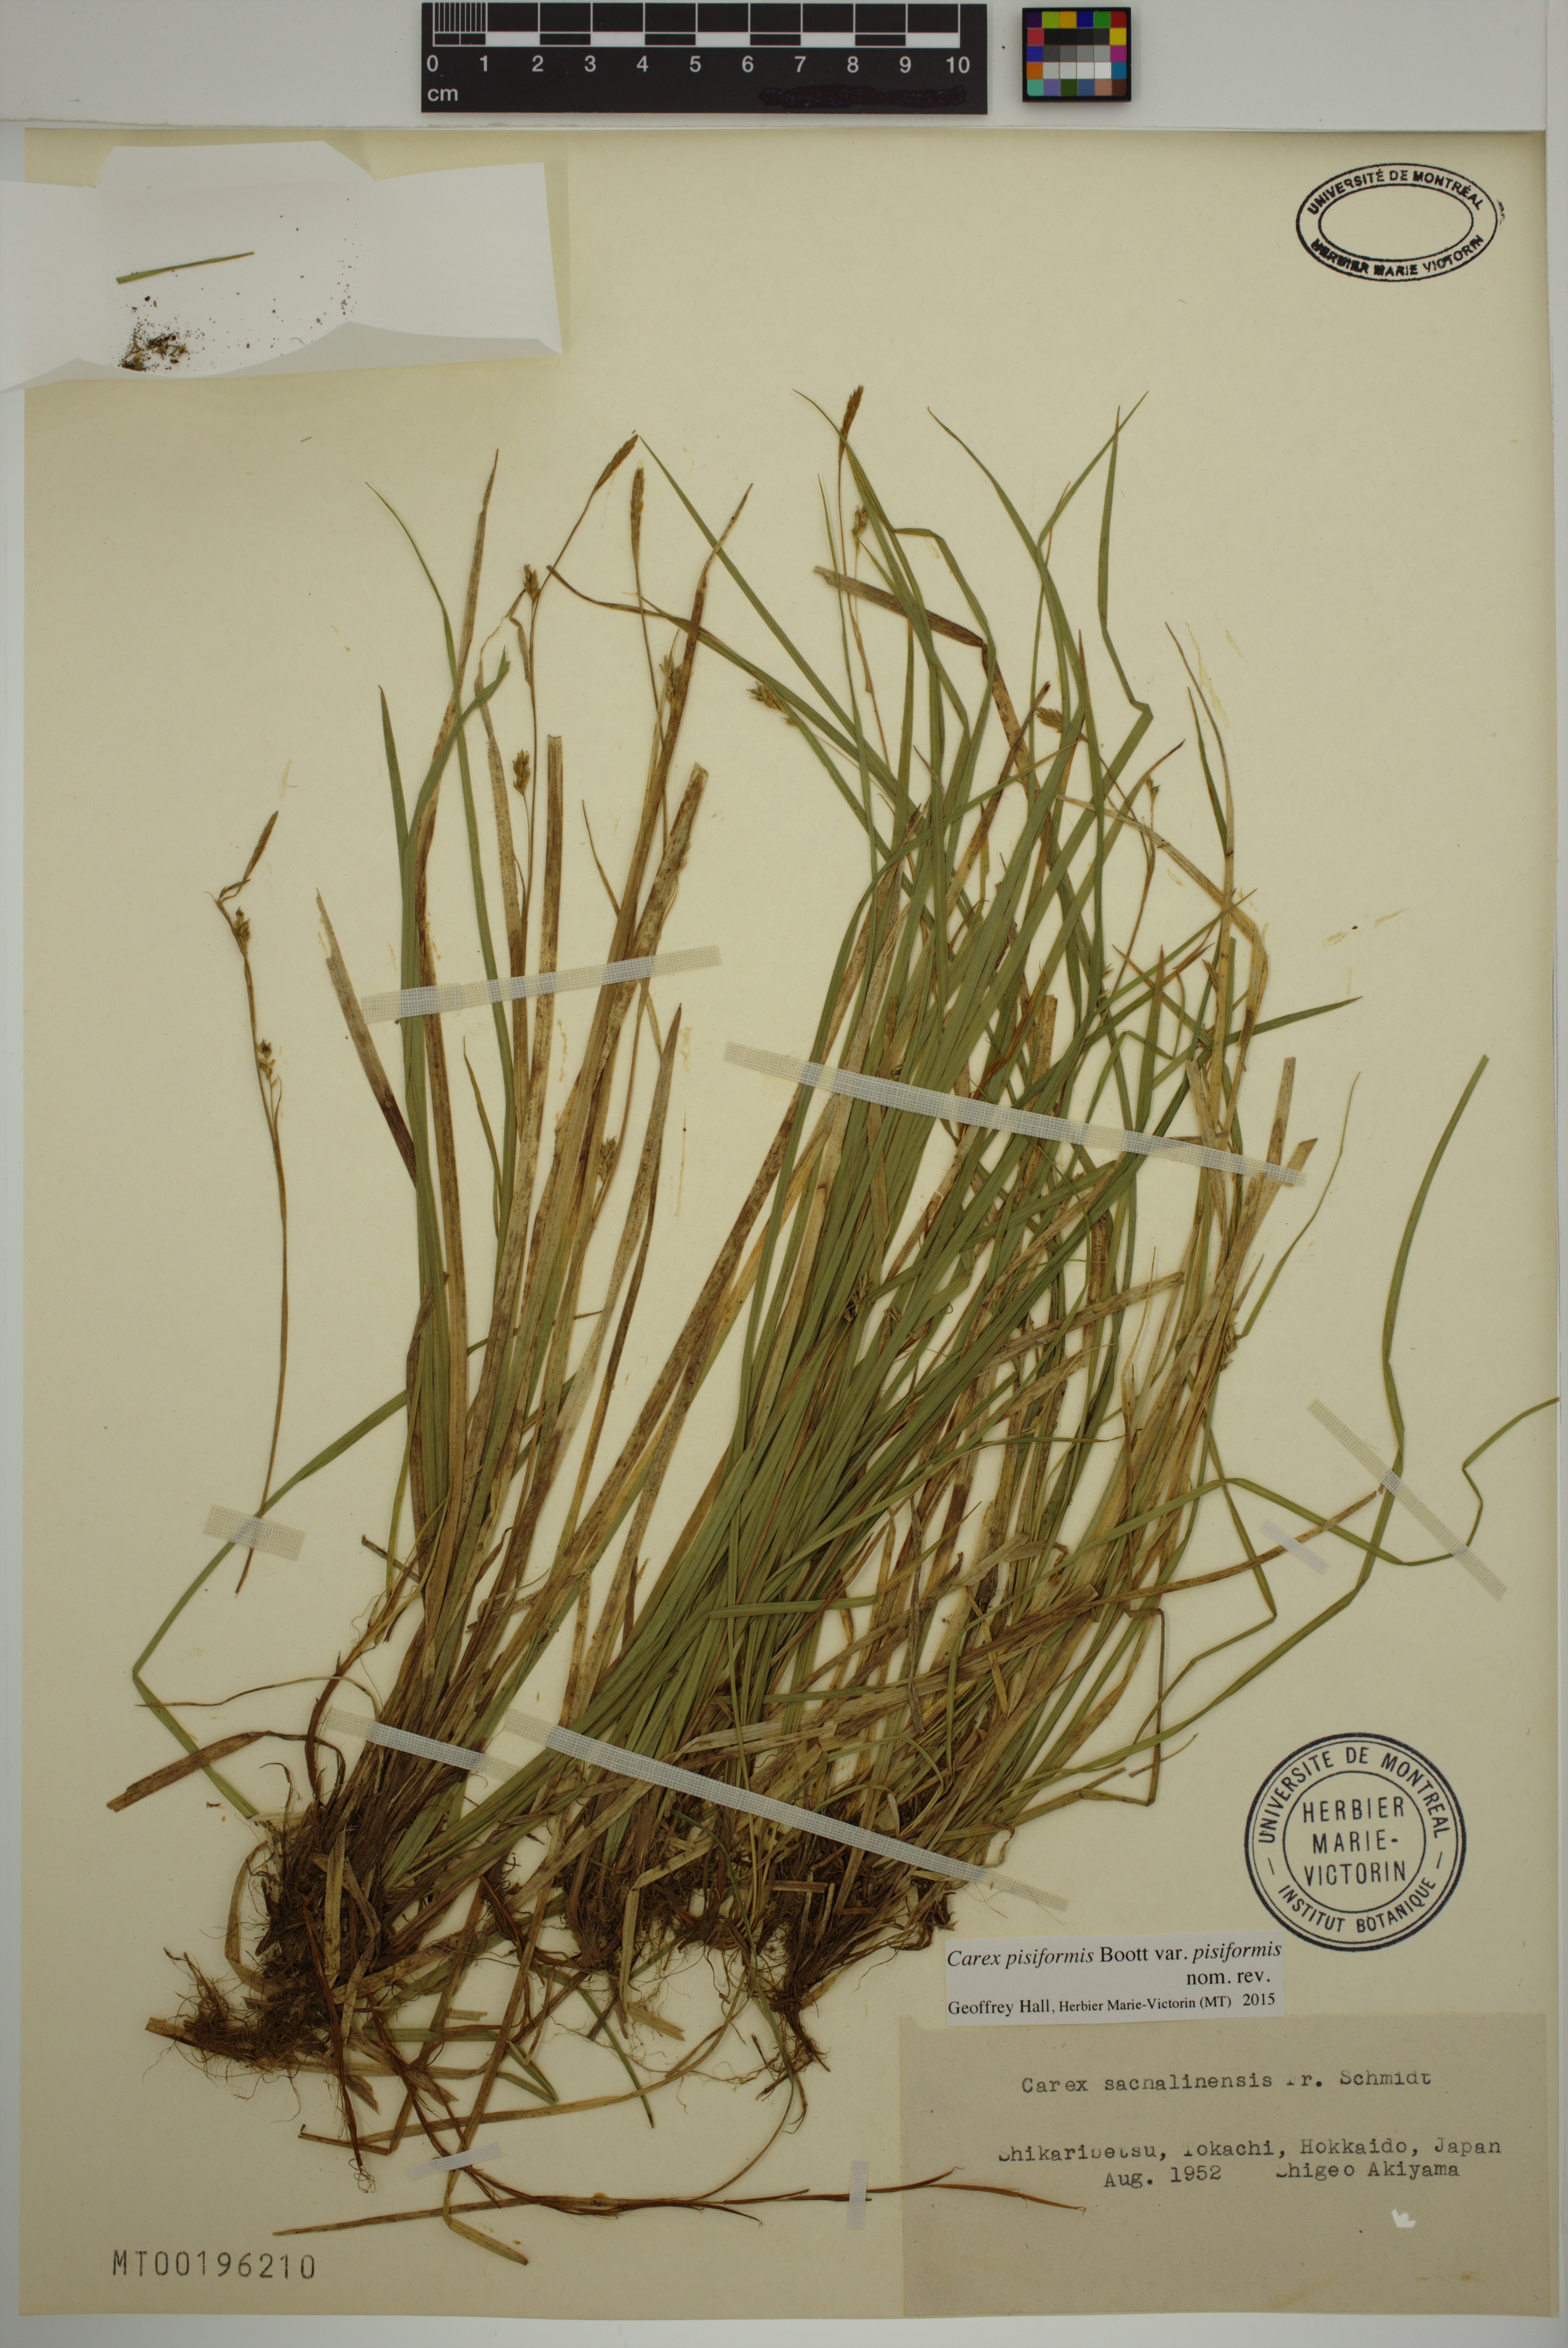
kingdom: Plantae
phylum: Tracheophyta
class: Liliopsida
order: Poales
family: Cyperaceae
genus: Carex
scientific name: Carex pisiformis
